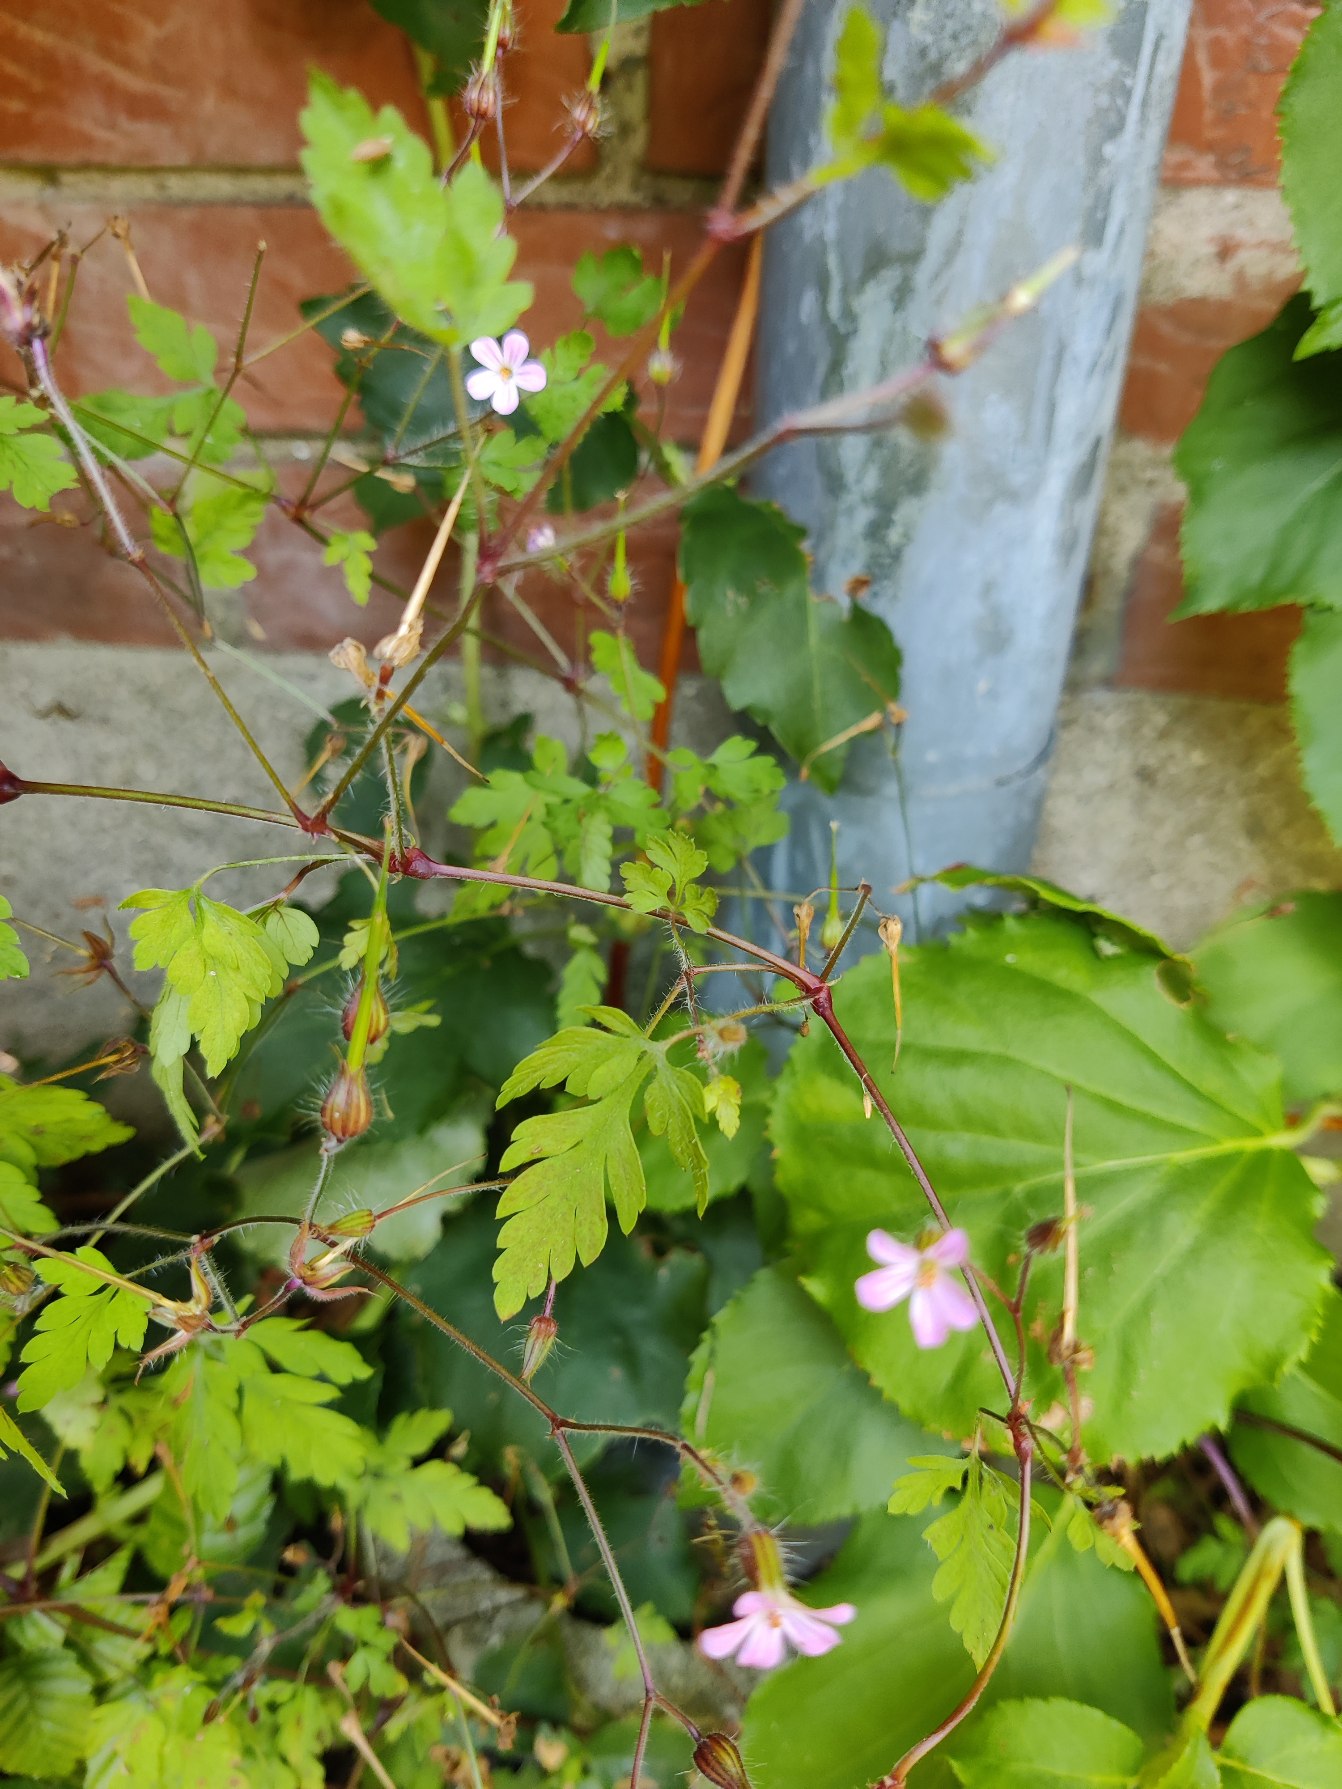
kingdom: Plantae
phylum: Tracheophyta
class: Magnoliopsida
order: Geraniales
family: Geraniaceae
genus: Geranium
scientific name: Geranium robertianum
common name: Stinkende storkenæb
